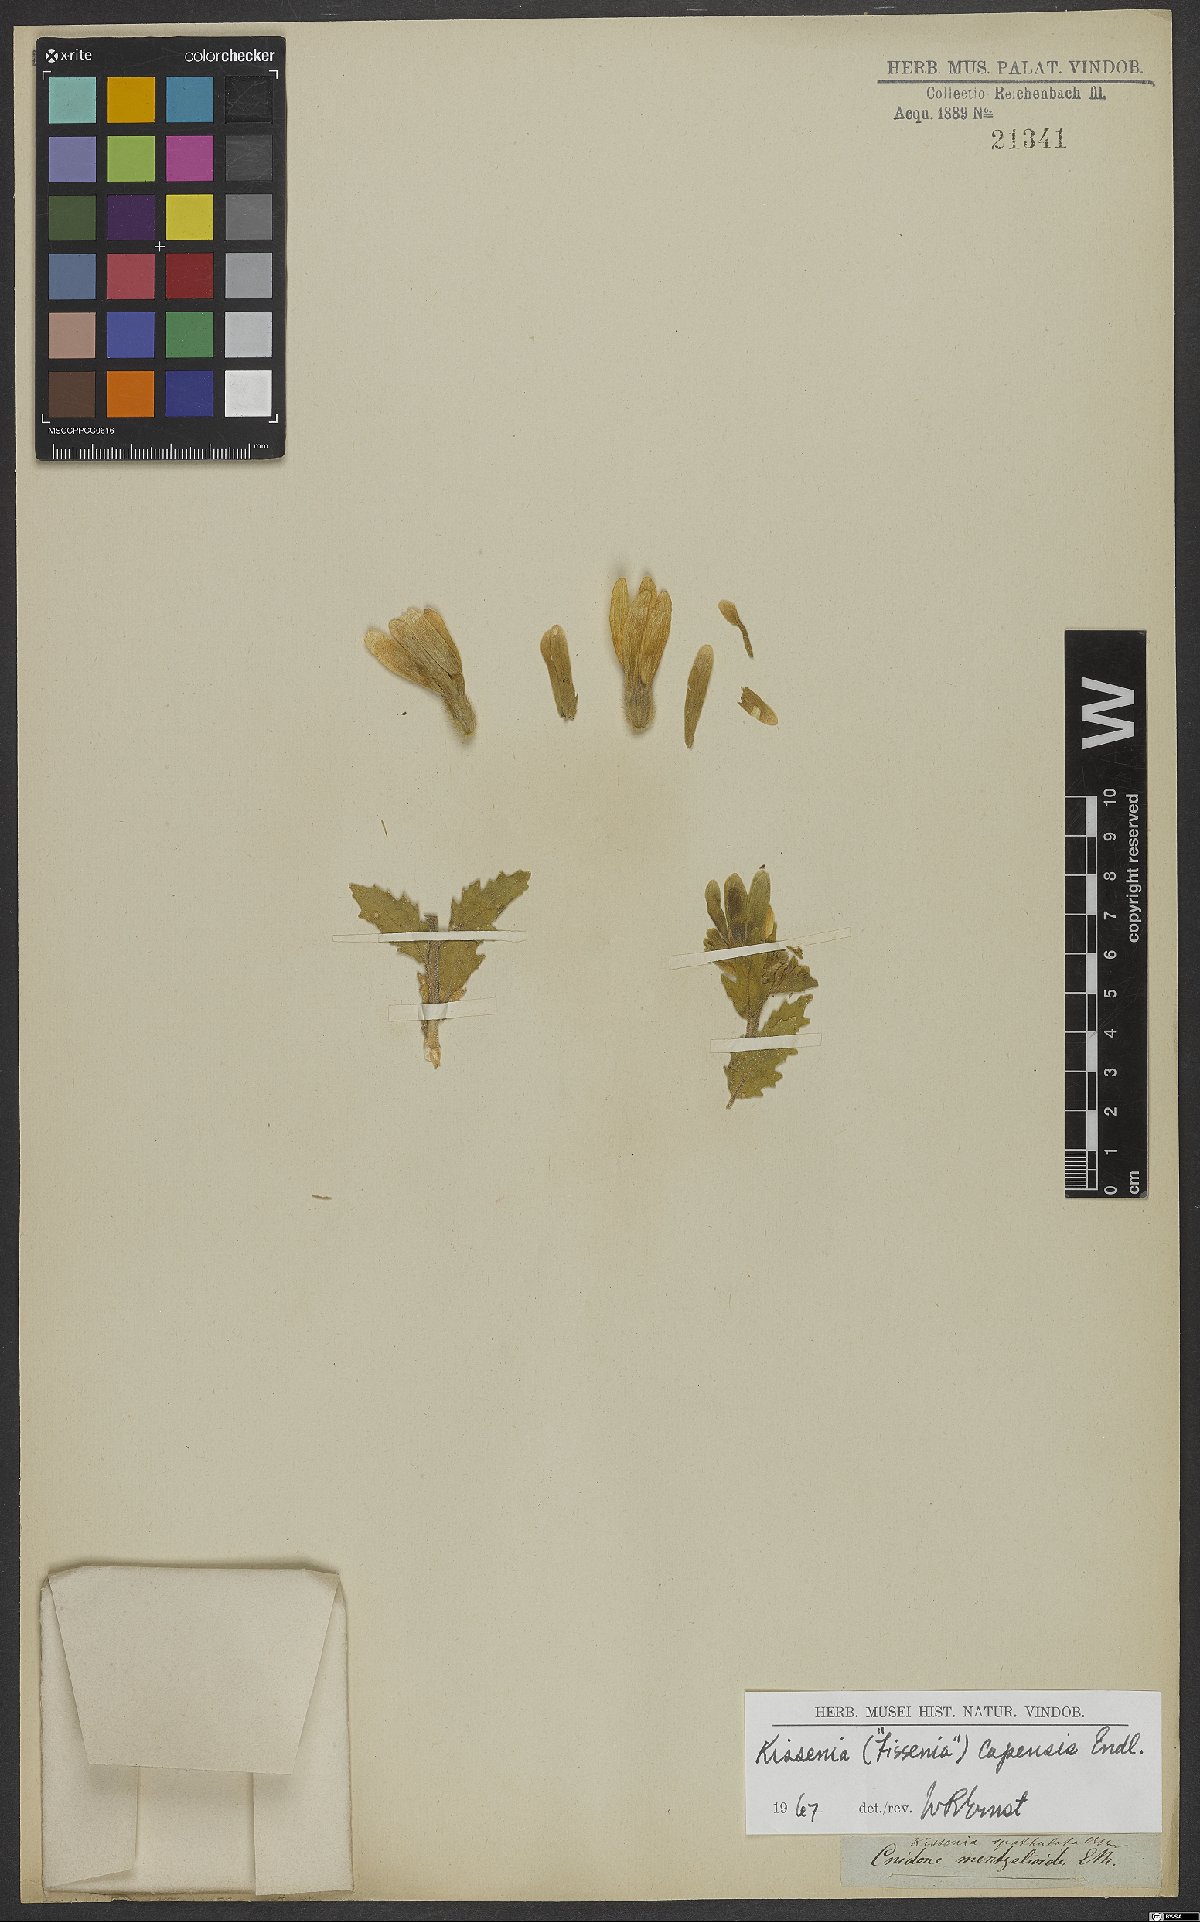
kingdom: Plantae
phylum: Tracheophyta
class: Magnoliopsida
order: Cornales
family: Loasaceae
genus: Kissenia
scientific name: Kissenia capensis
